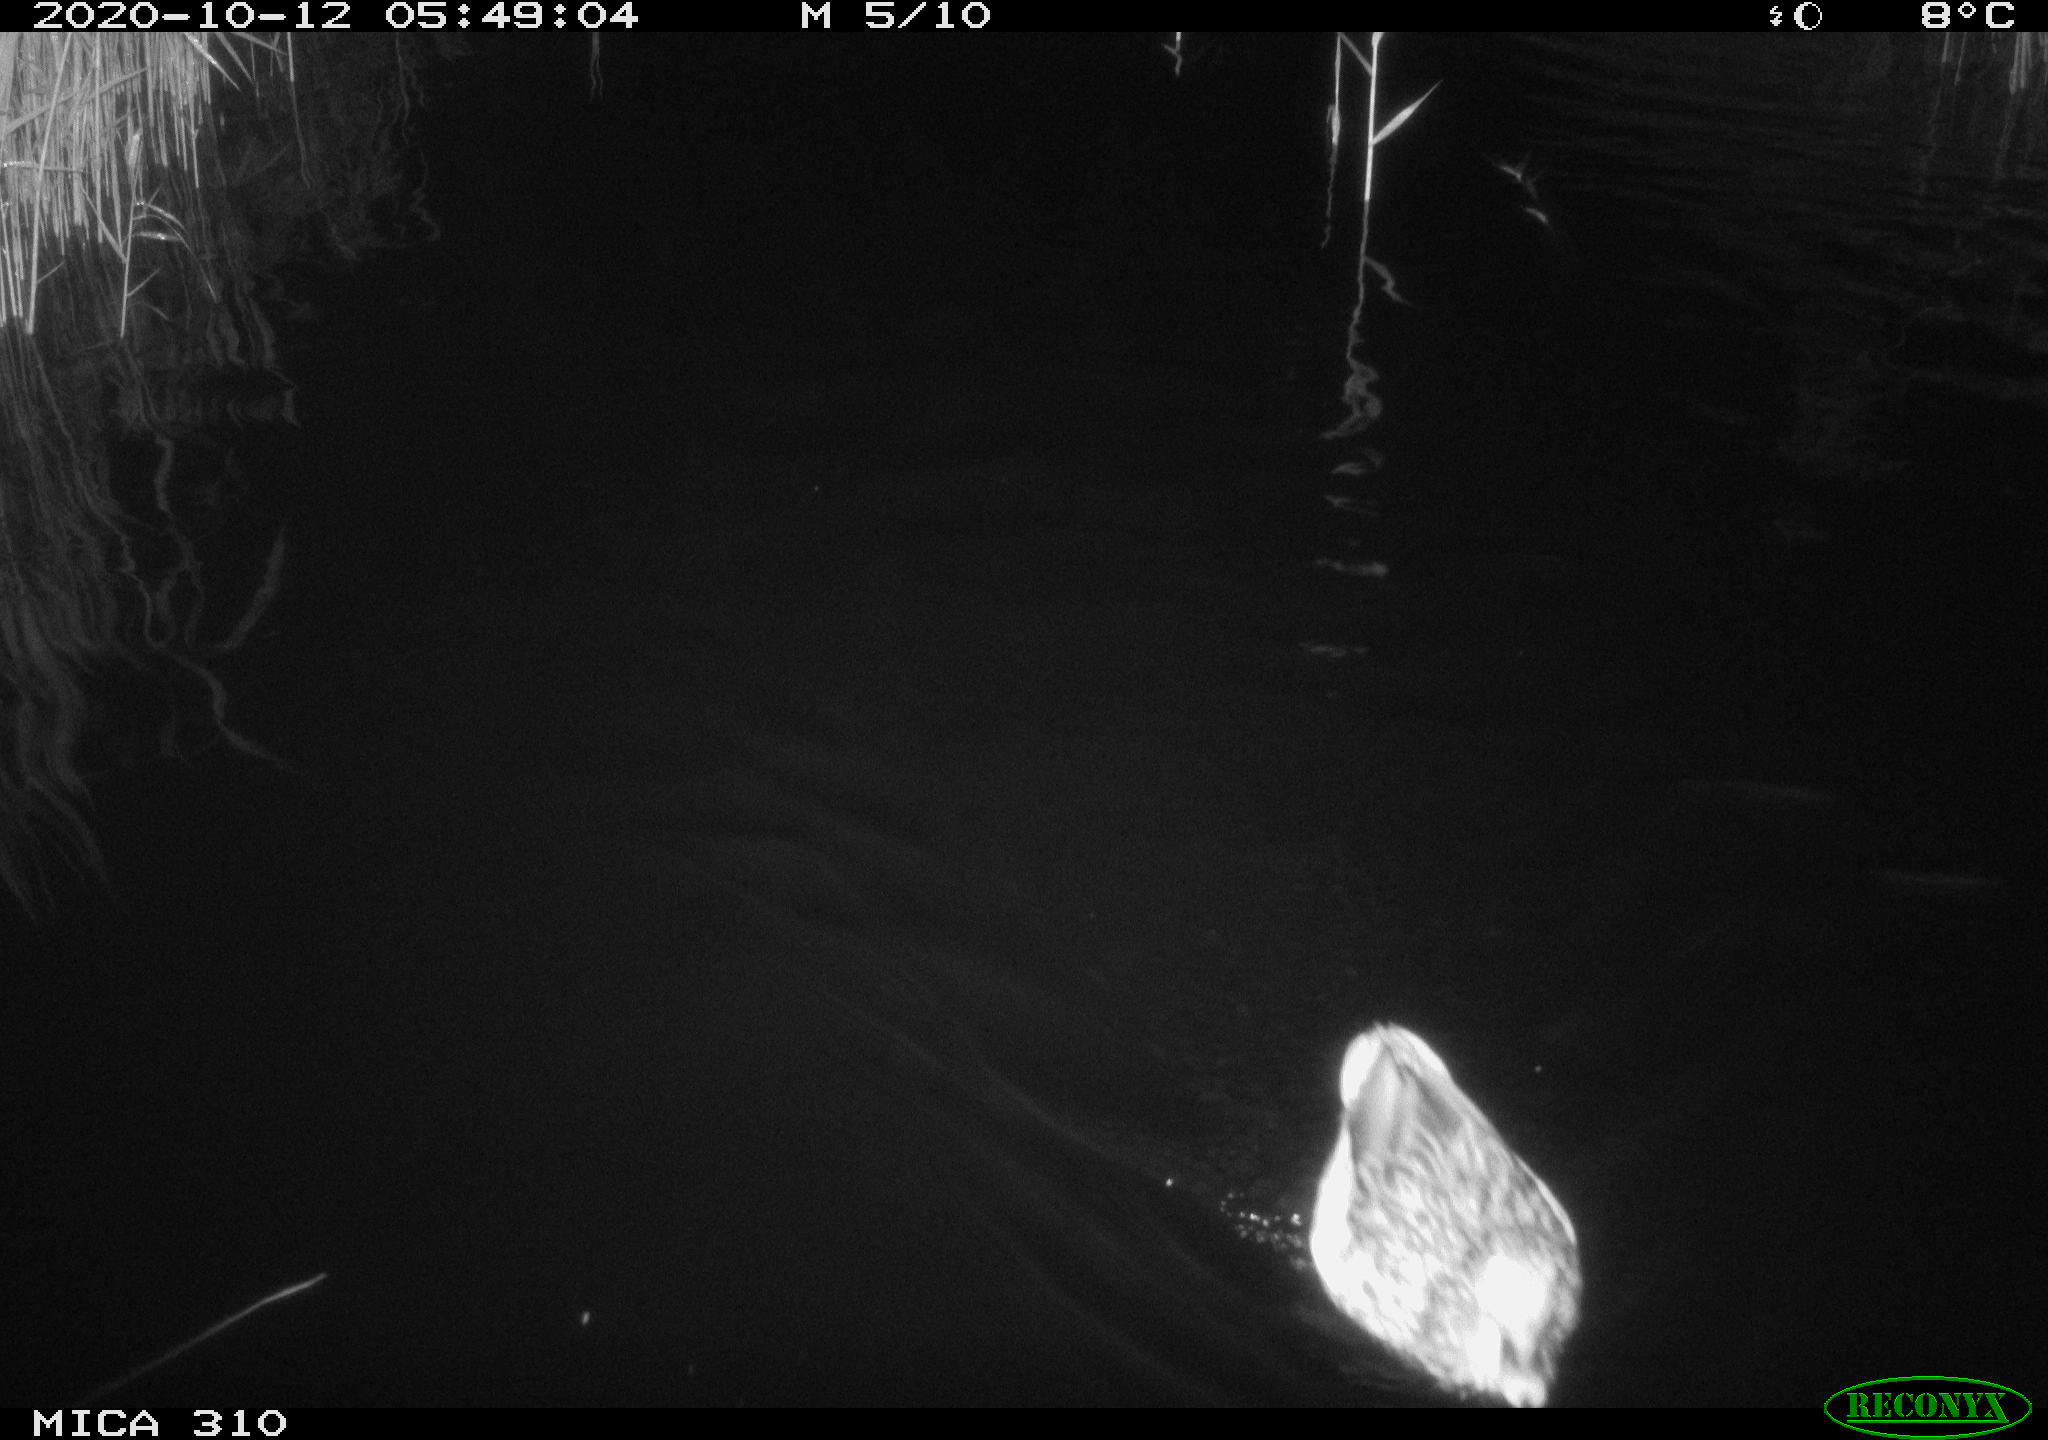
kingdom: Animalia
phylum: Chordata
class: Aves
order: Anseriformes
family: Anatidae
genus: Anas
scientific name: Anas platyrhynchos
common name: Mallard
